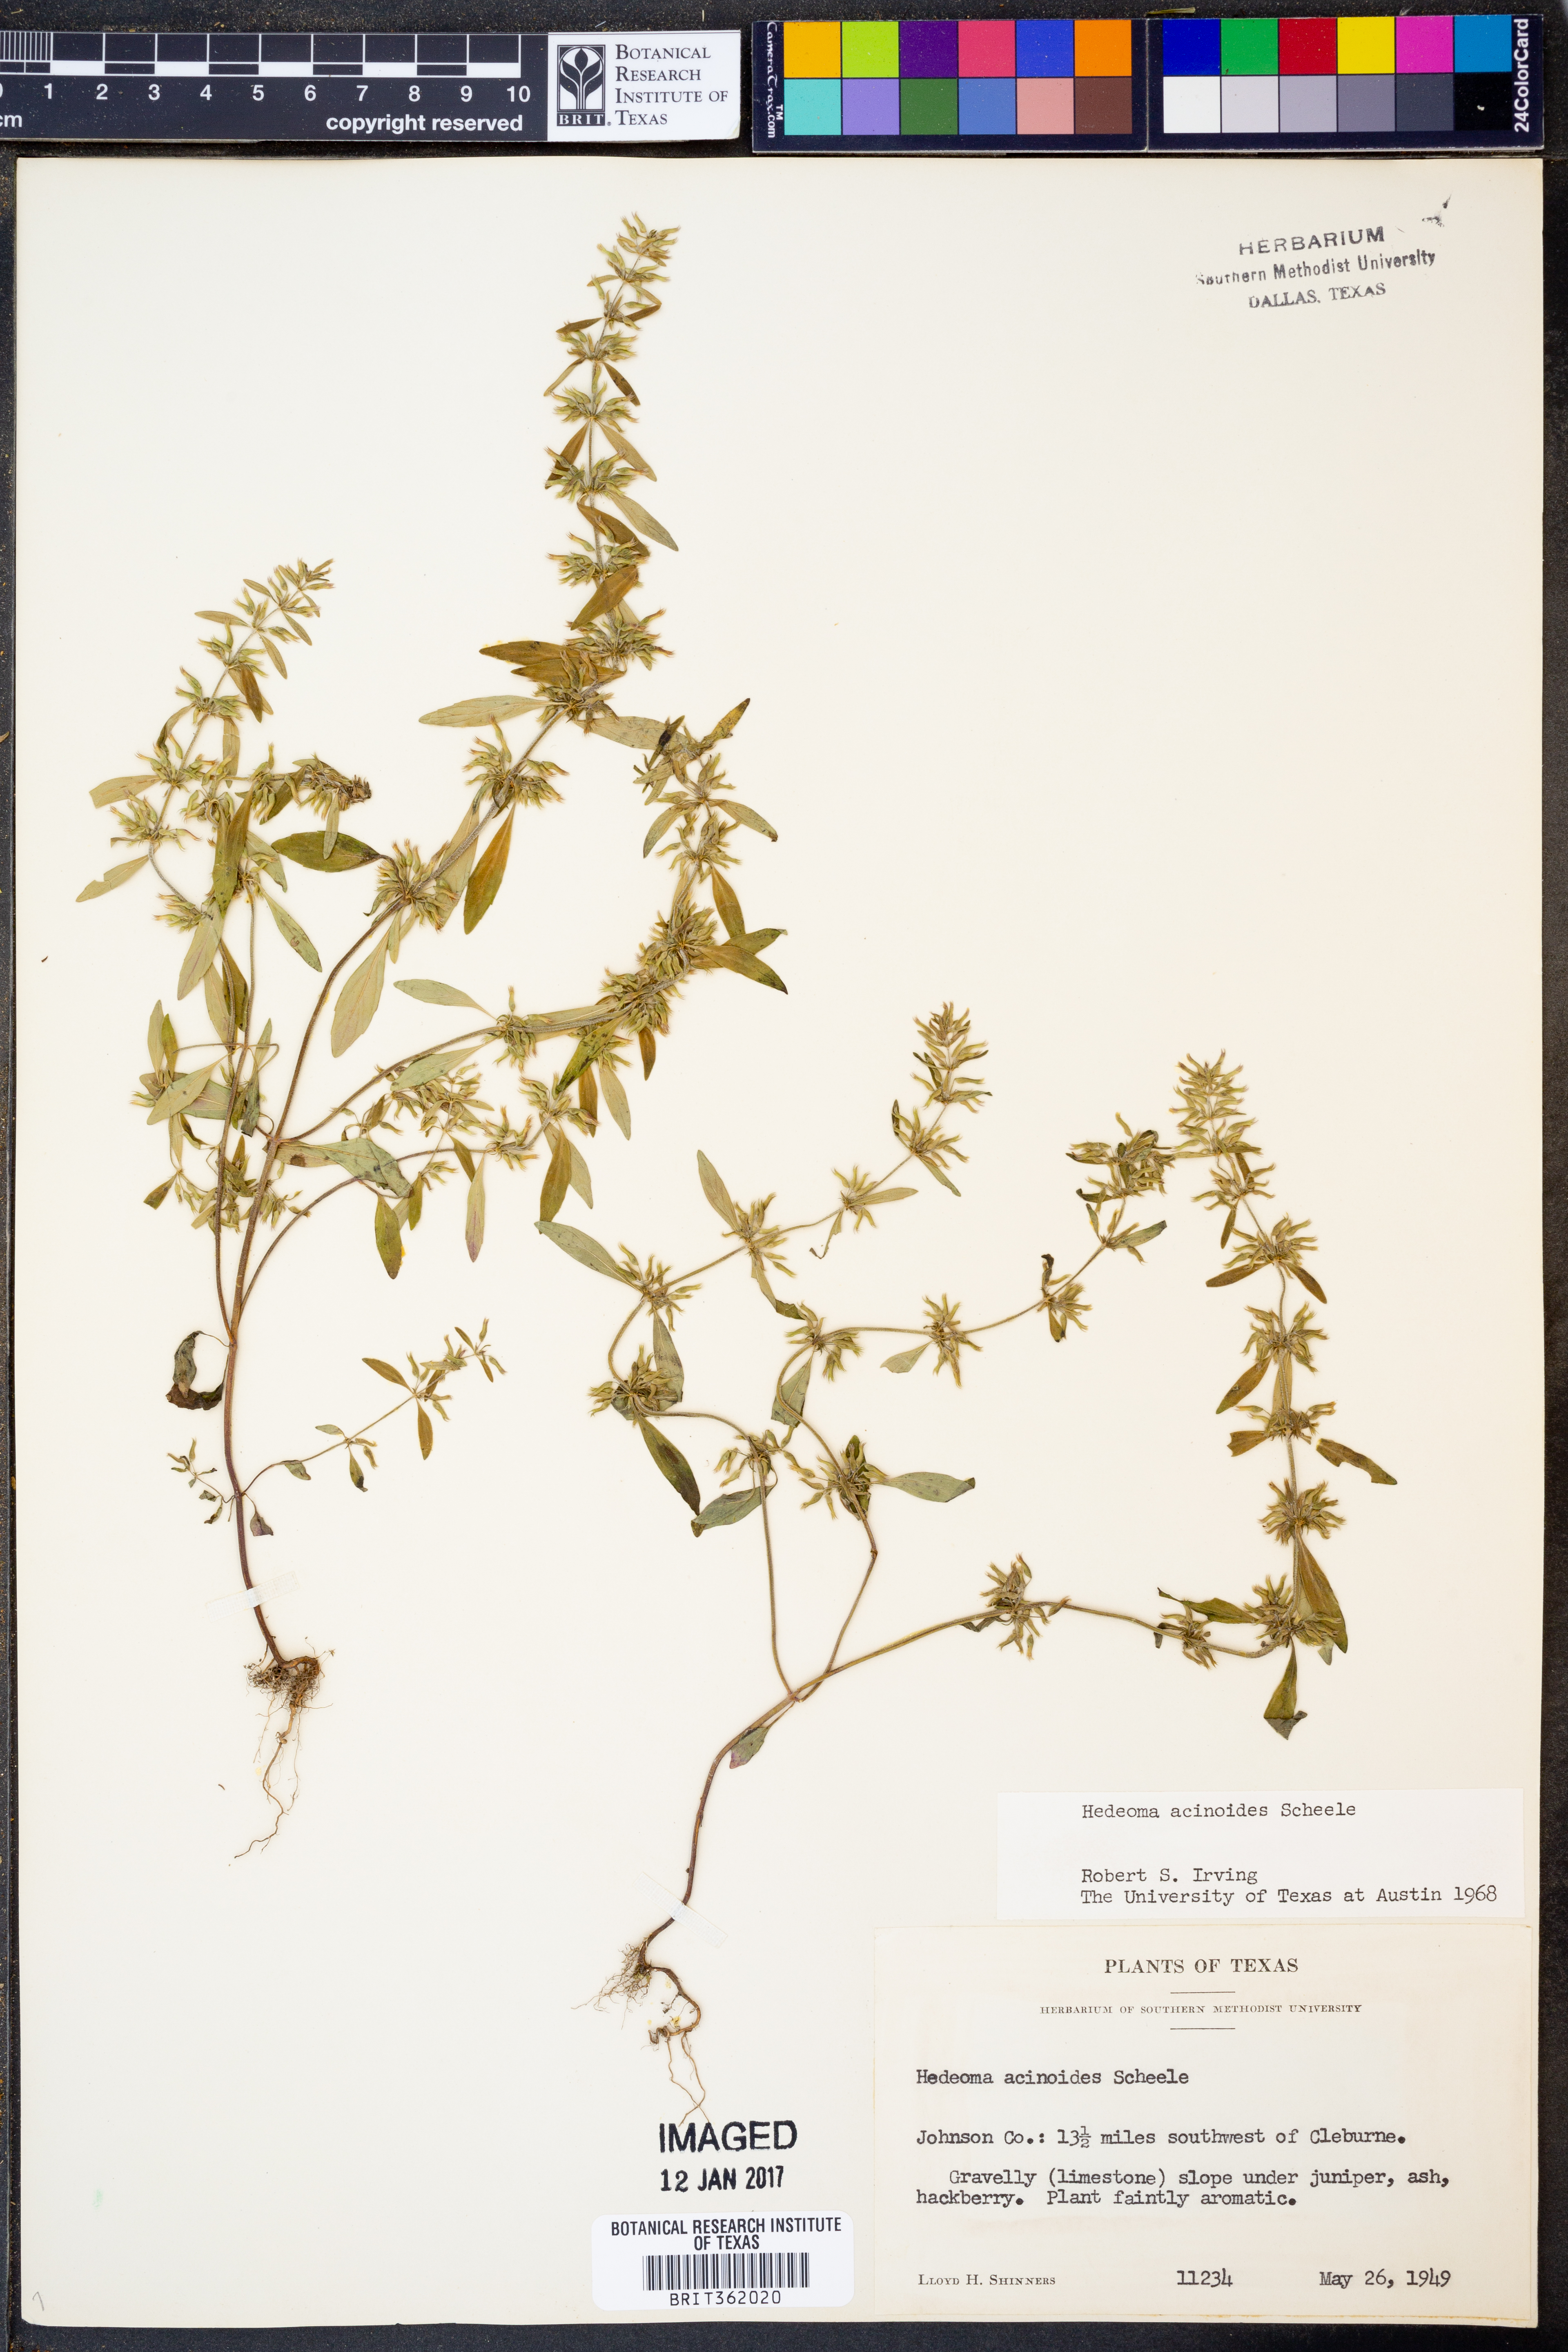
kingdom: Plantae
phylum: Tracheophyta
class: Magnoliopsida
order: Lamiales
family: Lamiaceae
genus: Hedeoma
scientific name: Hedeoma acinoides
